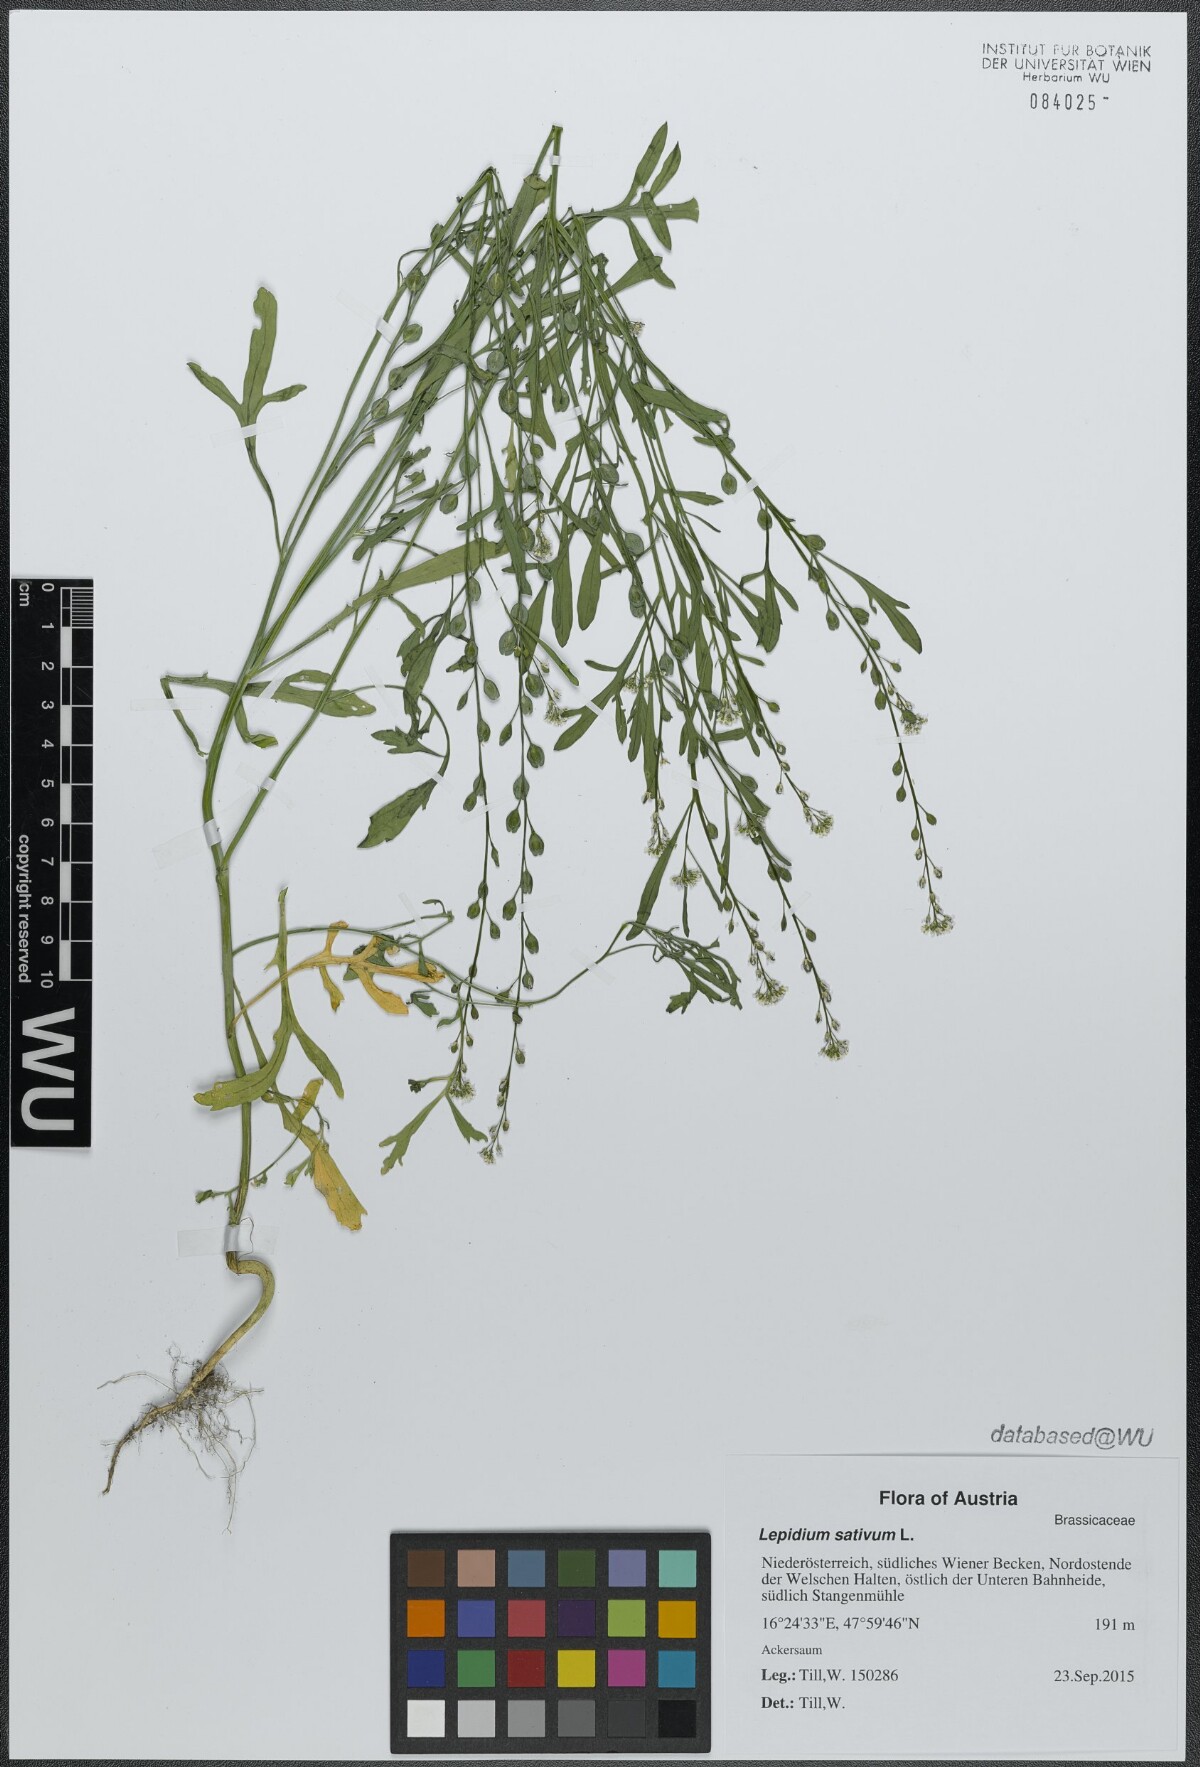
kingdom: Plantae
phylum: Tracheophyta
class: Magnoliopsida
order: Brassicales
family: Brassicaceae
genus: Lepidium
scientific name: Lepidium sativum
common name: Garden cress
